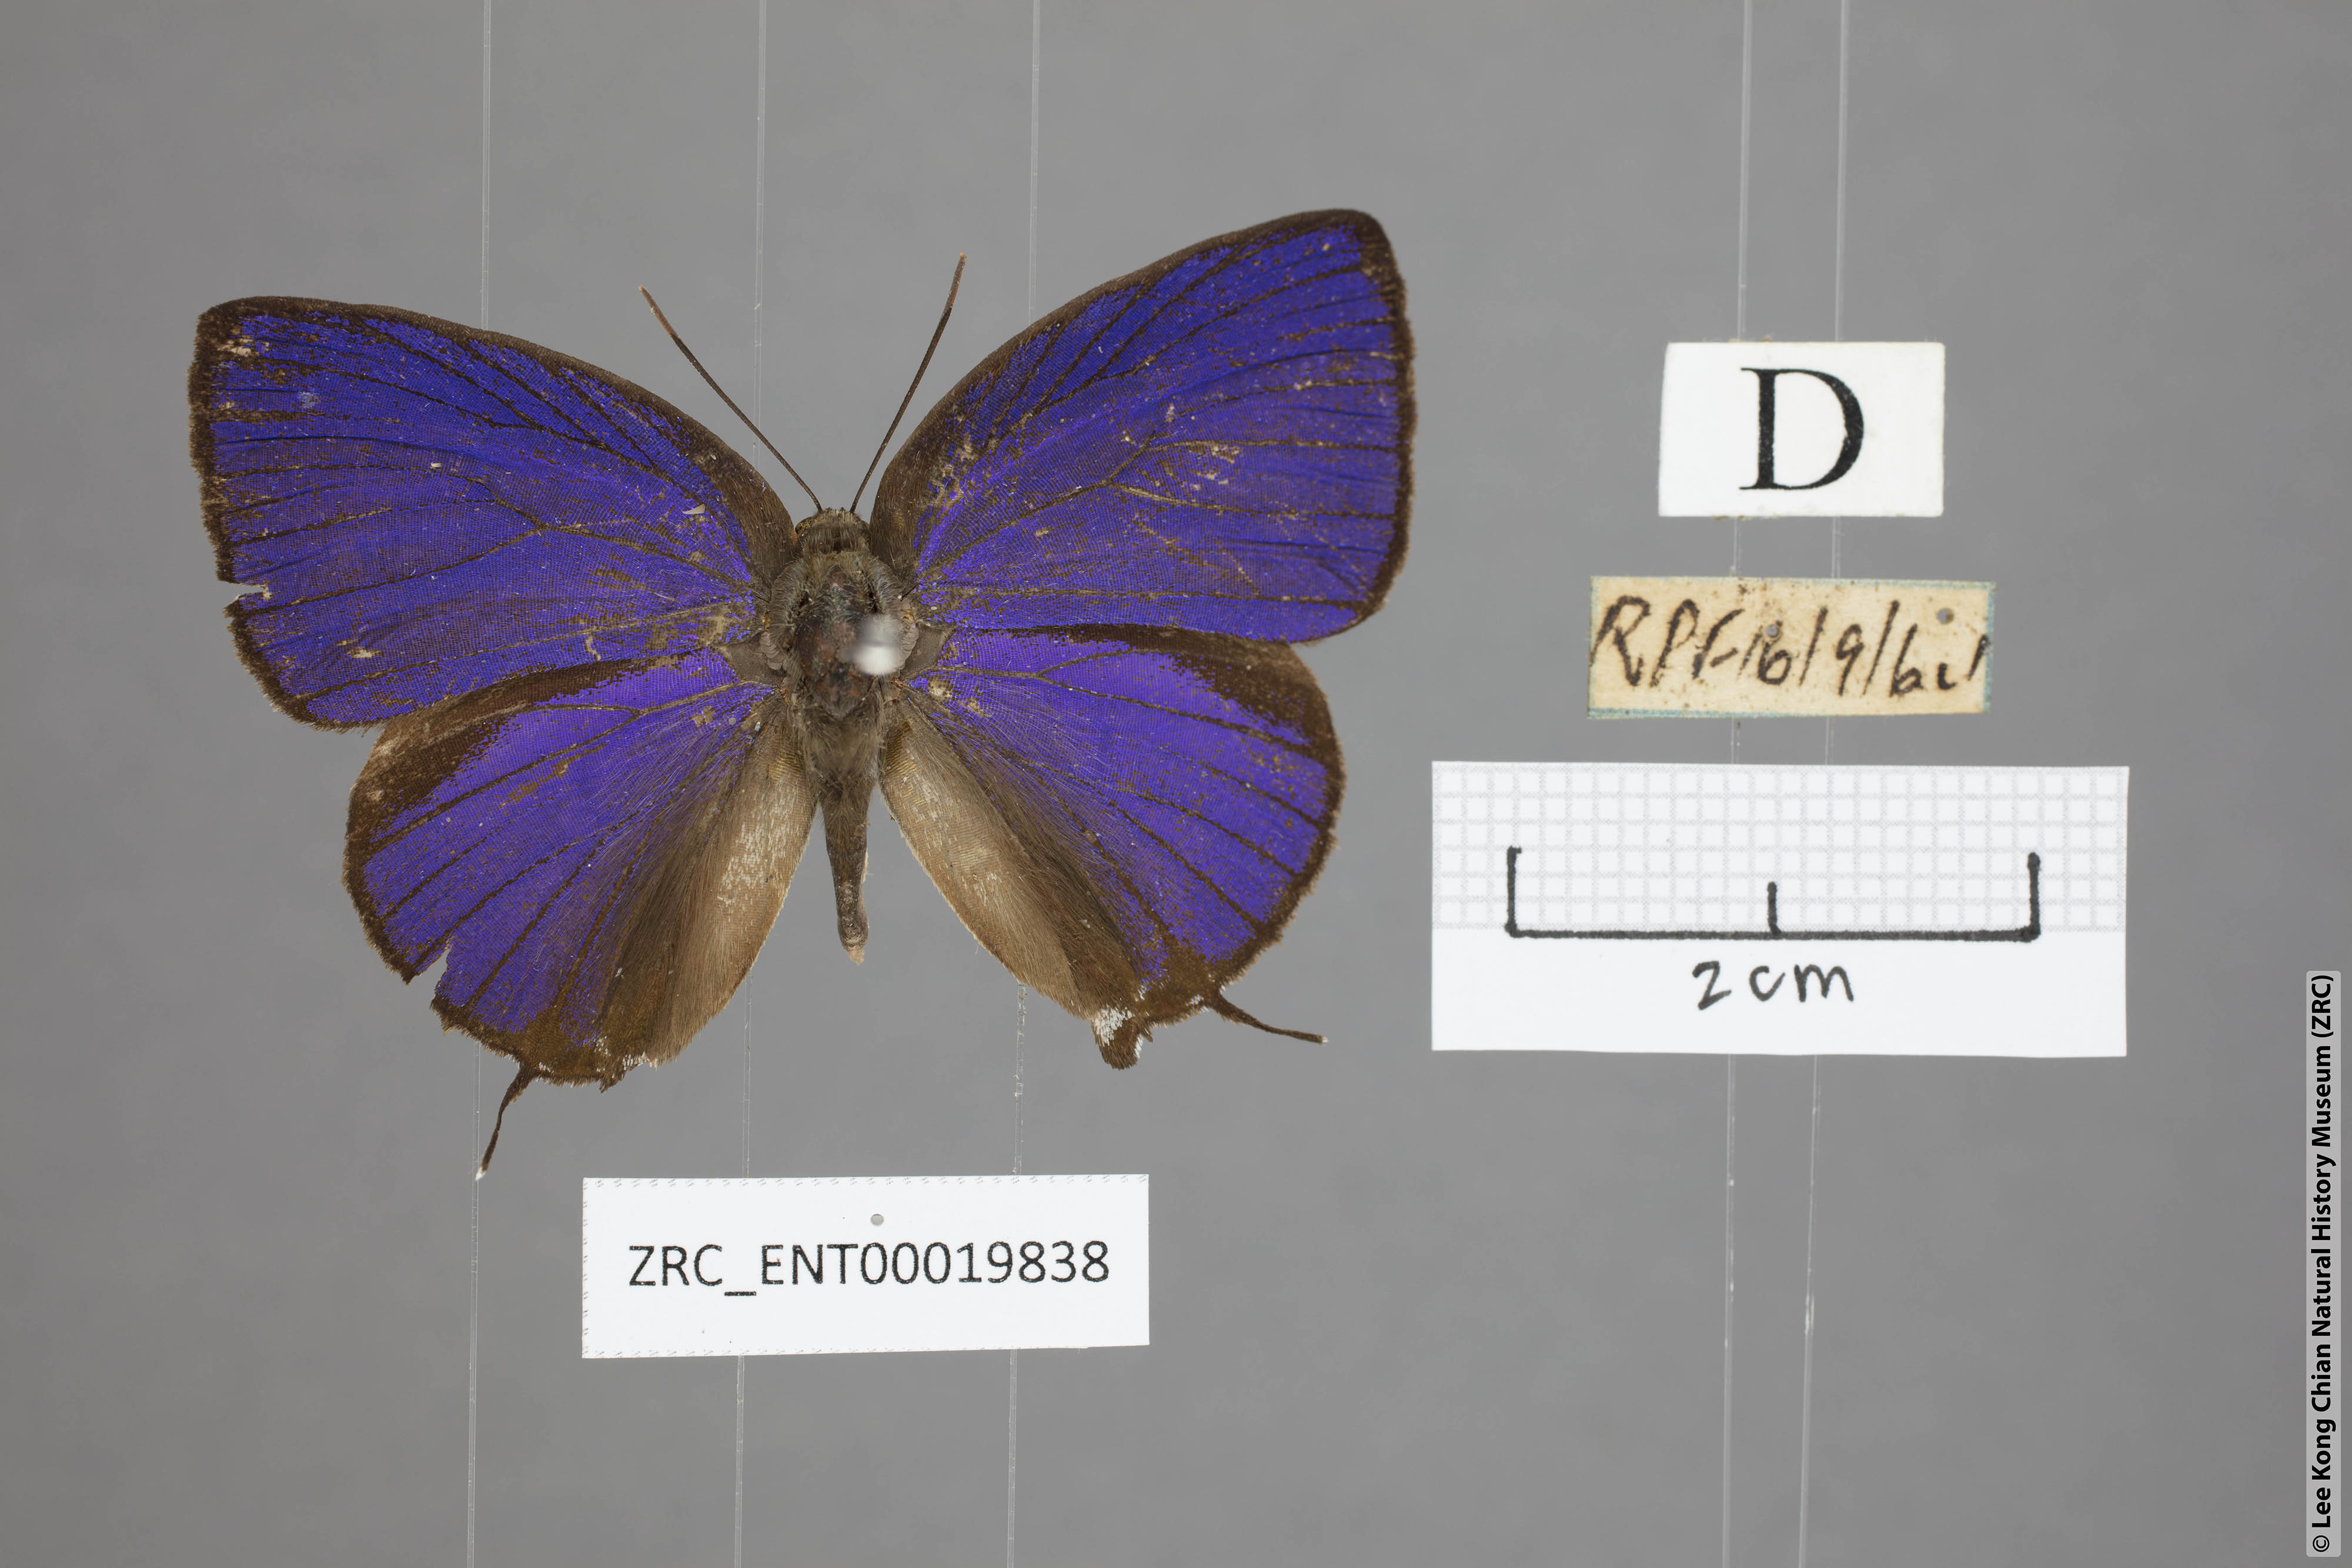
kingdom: Animalia
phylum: Arthropoda
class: Insecta
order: Lepidoptera
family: Lycaenidae
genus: Arhopala
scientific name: Arhopala
